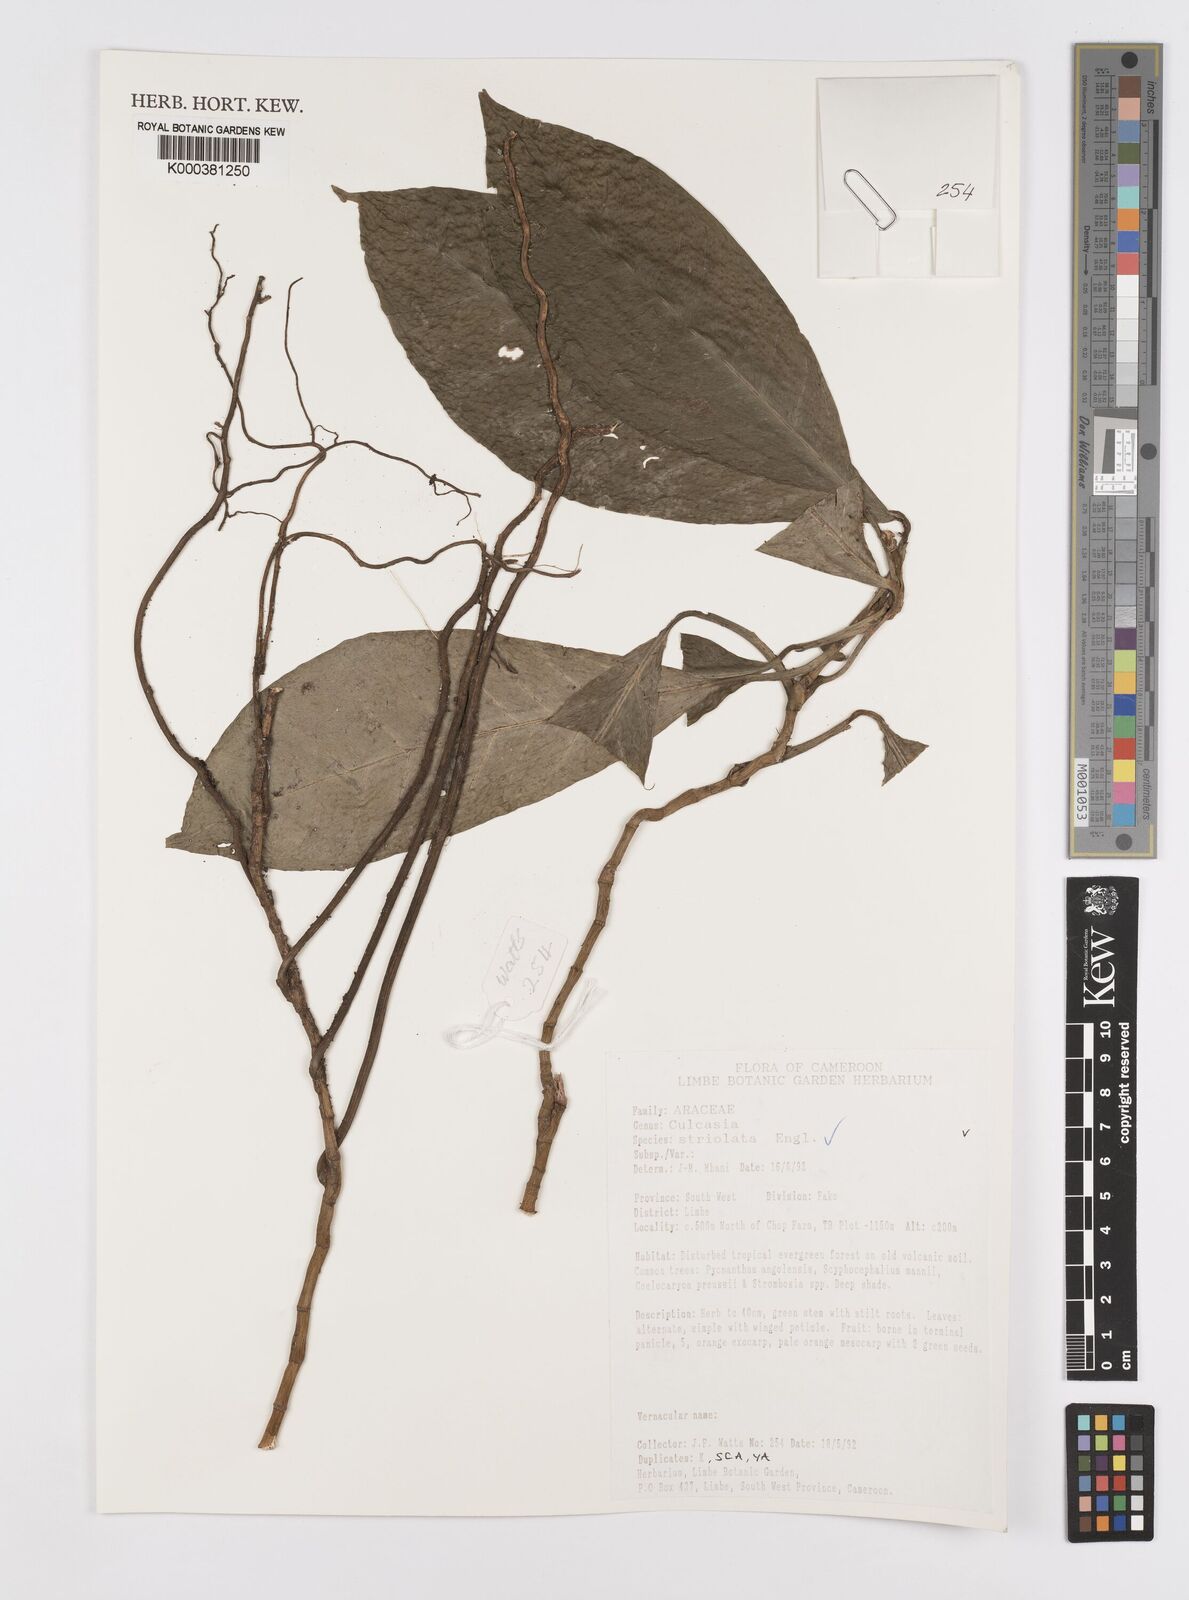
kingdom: Plantae
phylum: Tracheophyta
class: Liliopsida
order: Alismatales
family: Araceae
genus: Culcasia
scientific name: Culcasia striolata
